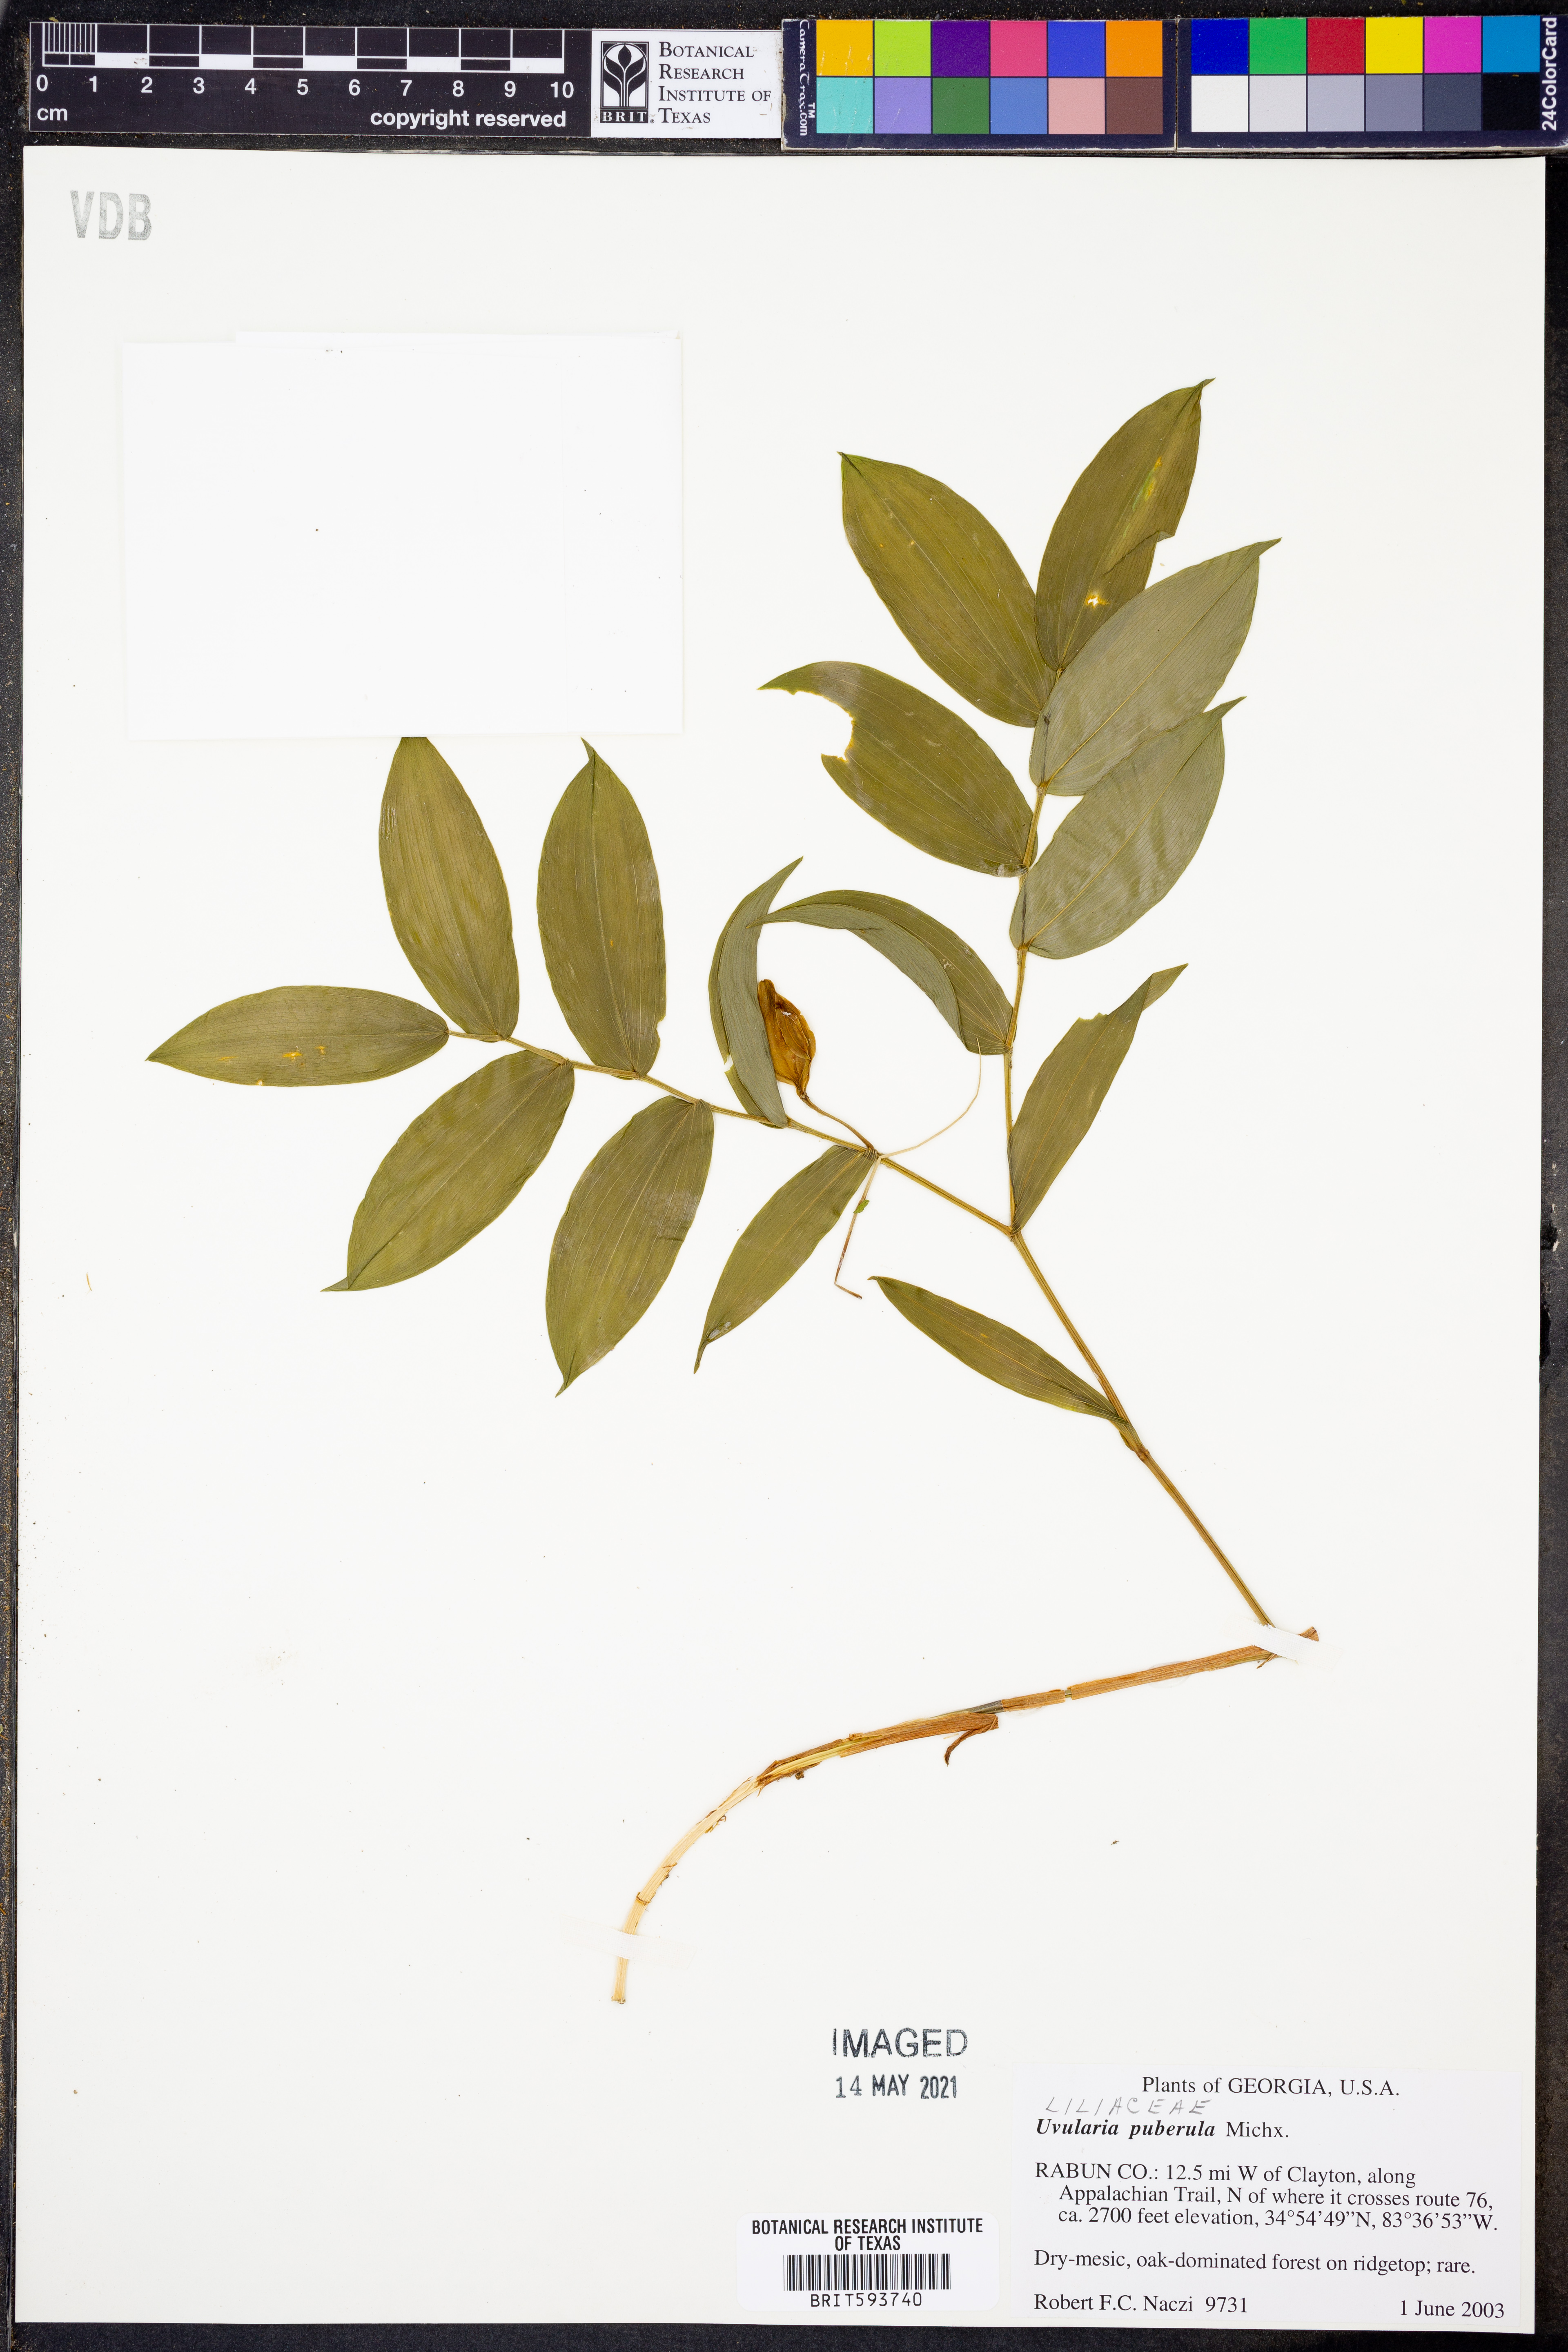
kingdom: Plantae
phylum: Tracheophyta
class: Liliopsida
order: Liliales
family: Colchicaceae
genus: Uvularia
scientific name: Uvularia puberula
